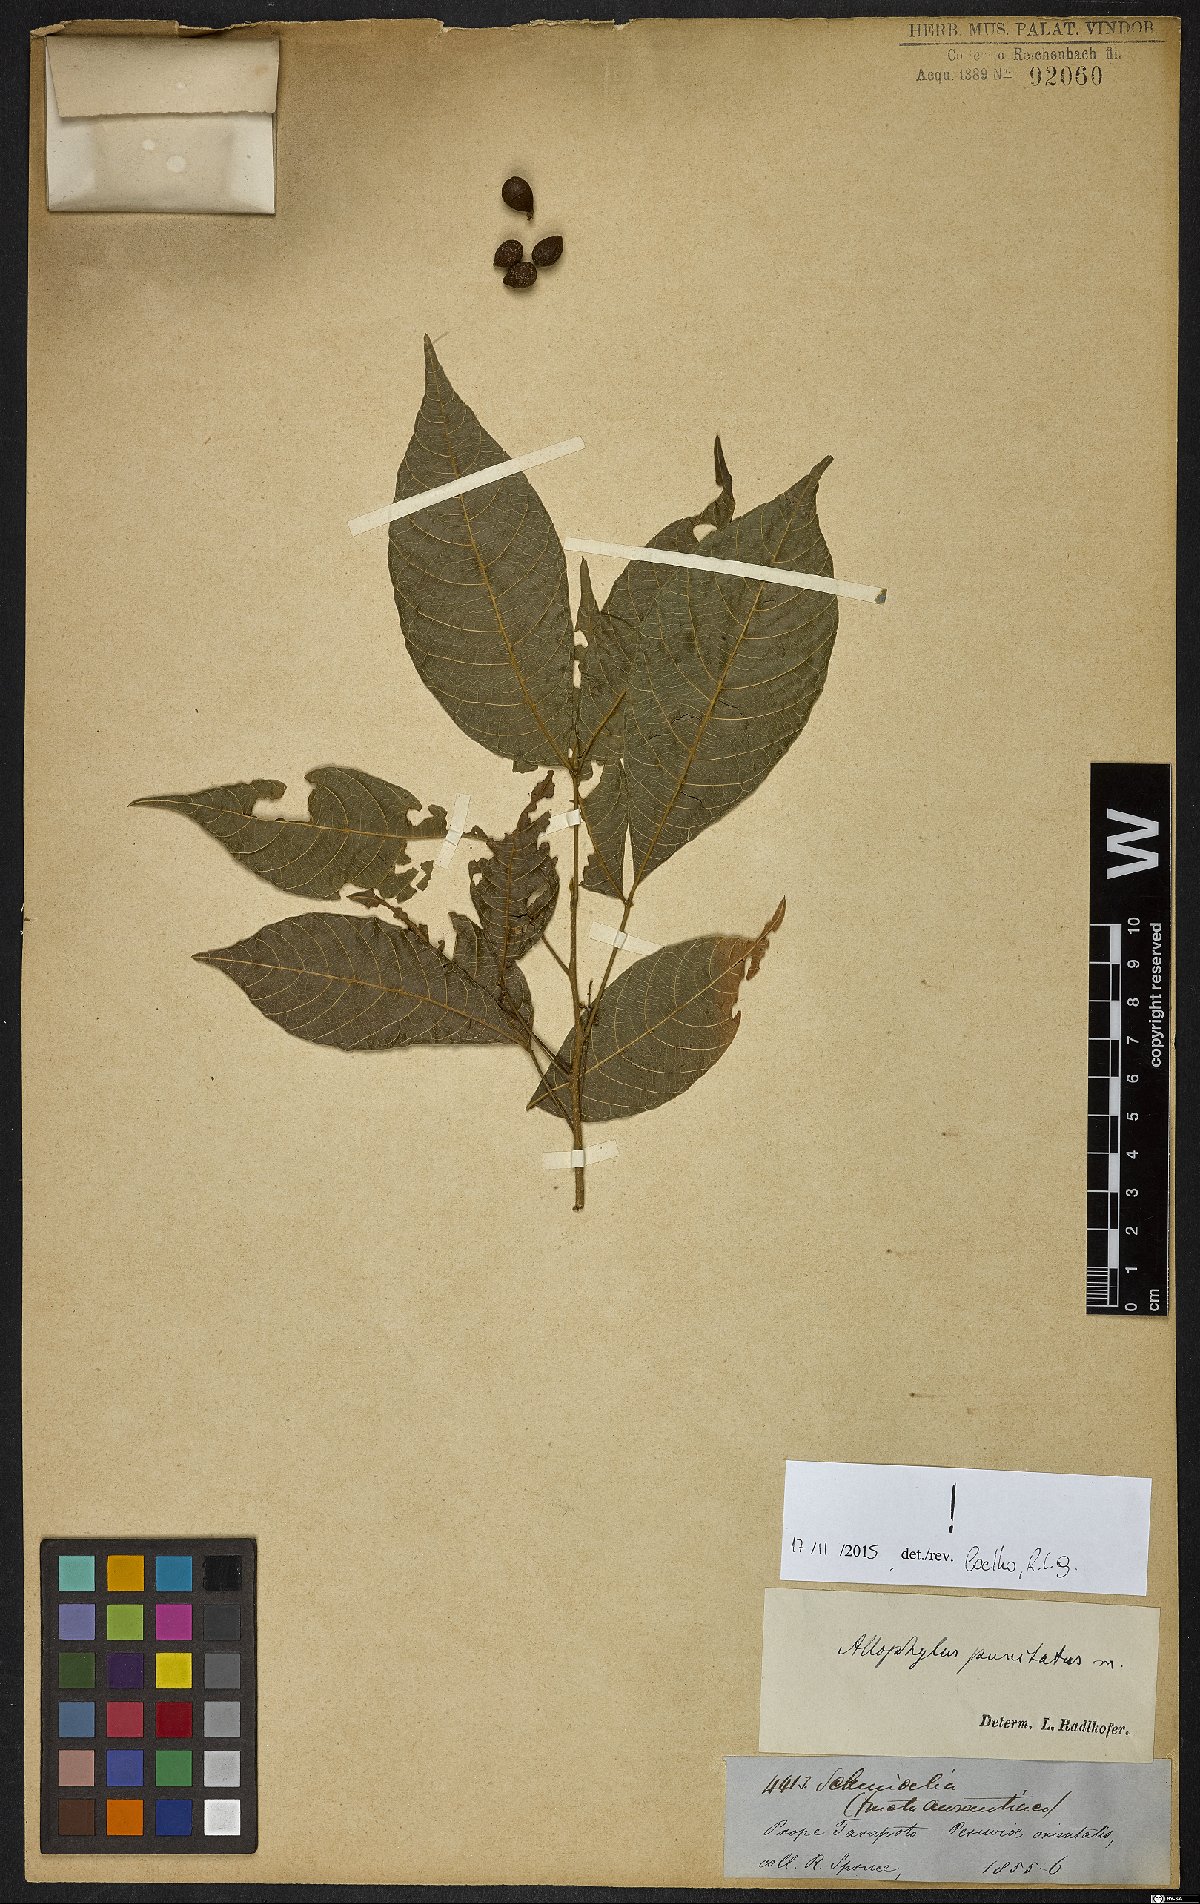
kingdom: Plantae
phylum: Tracheophyta
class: Magnoliopsida
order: Sapindales
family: Sapindaceae
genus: Allophylus
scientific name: Allophylus punctatus
